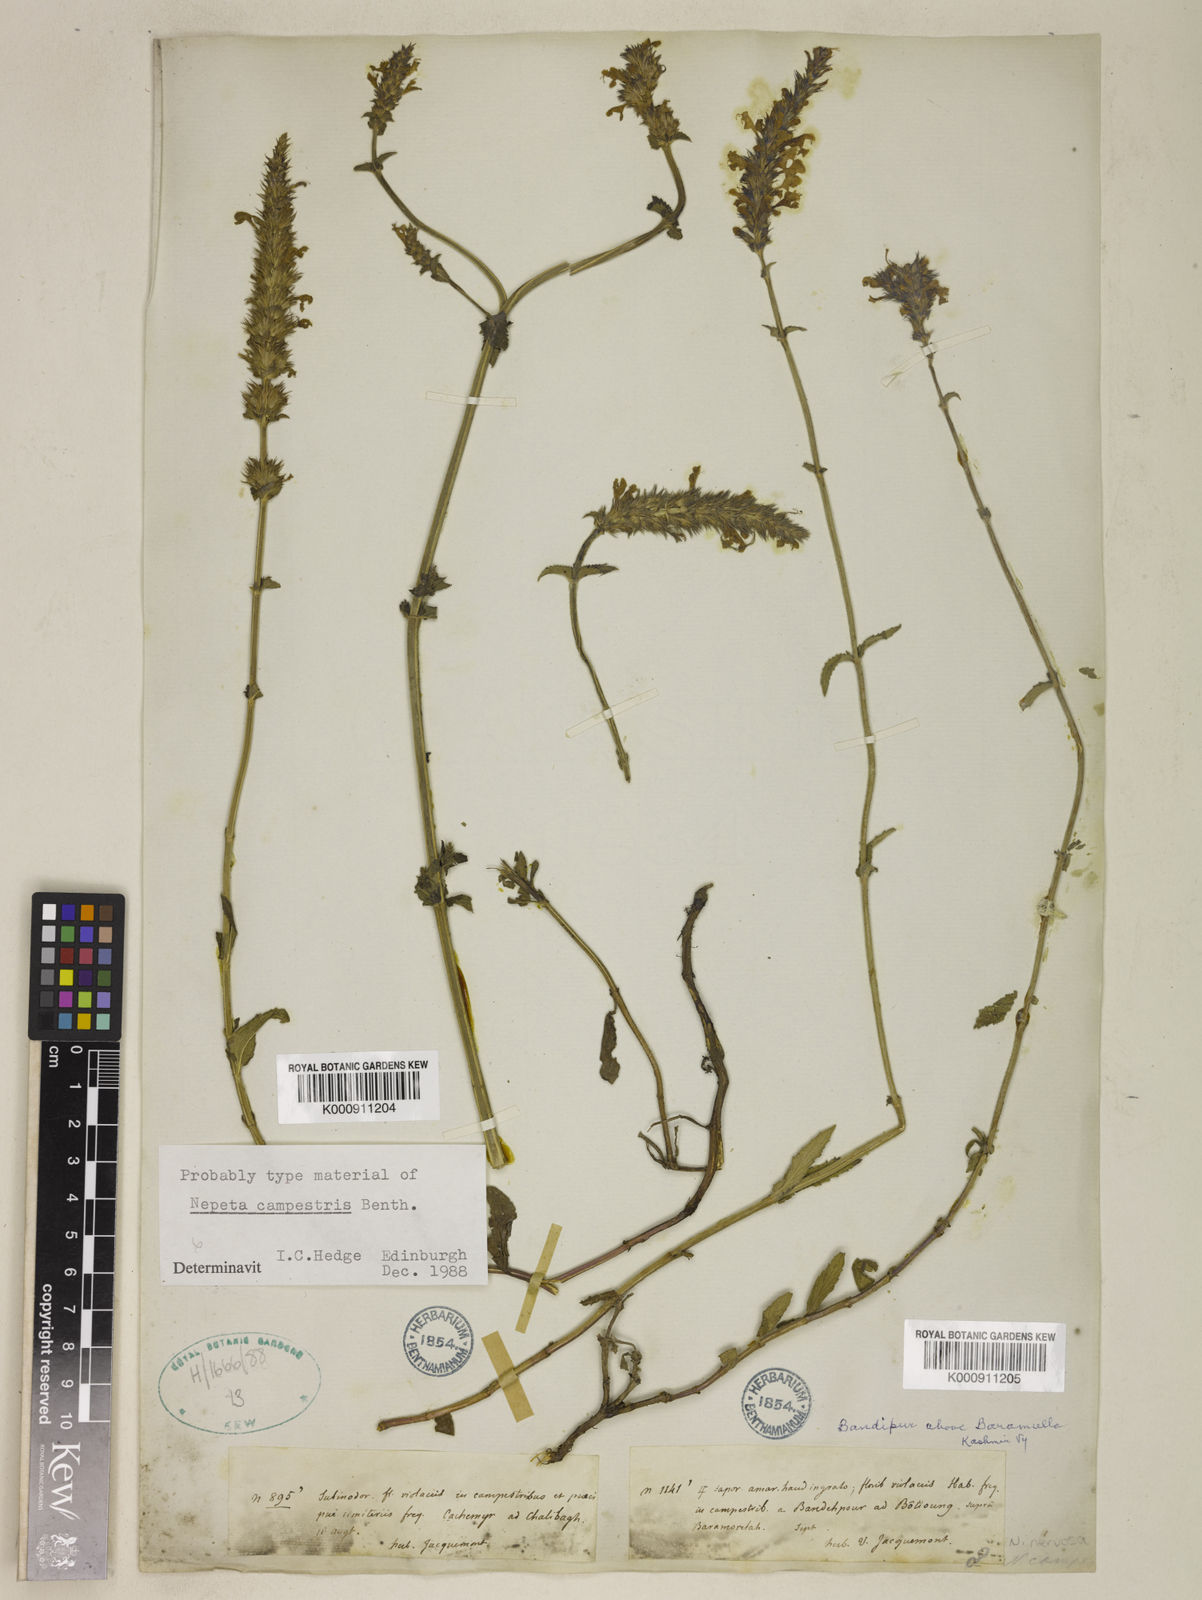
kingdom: Plantae
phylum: Tracheophyta
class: Magnoliopsida
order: Lamiales
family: Lamiaceae
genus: Nepeta
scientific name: Nepeta campestris
